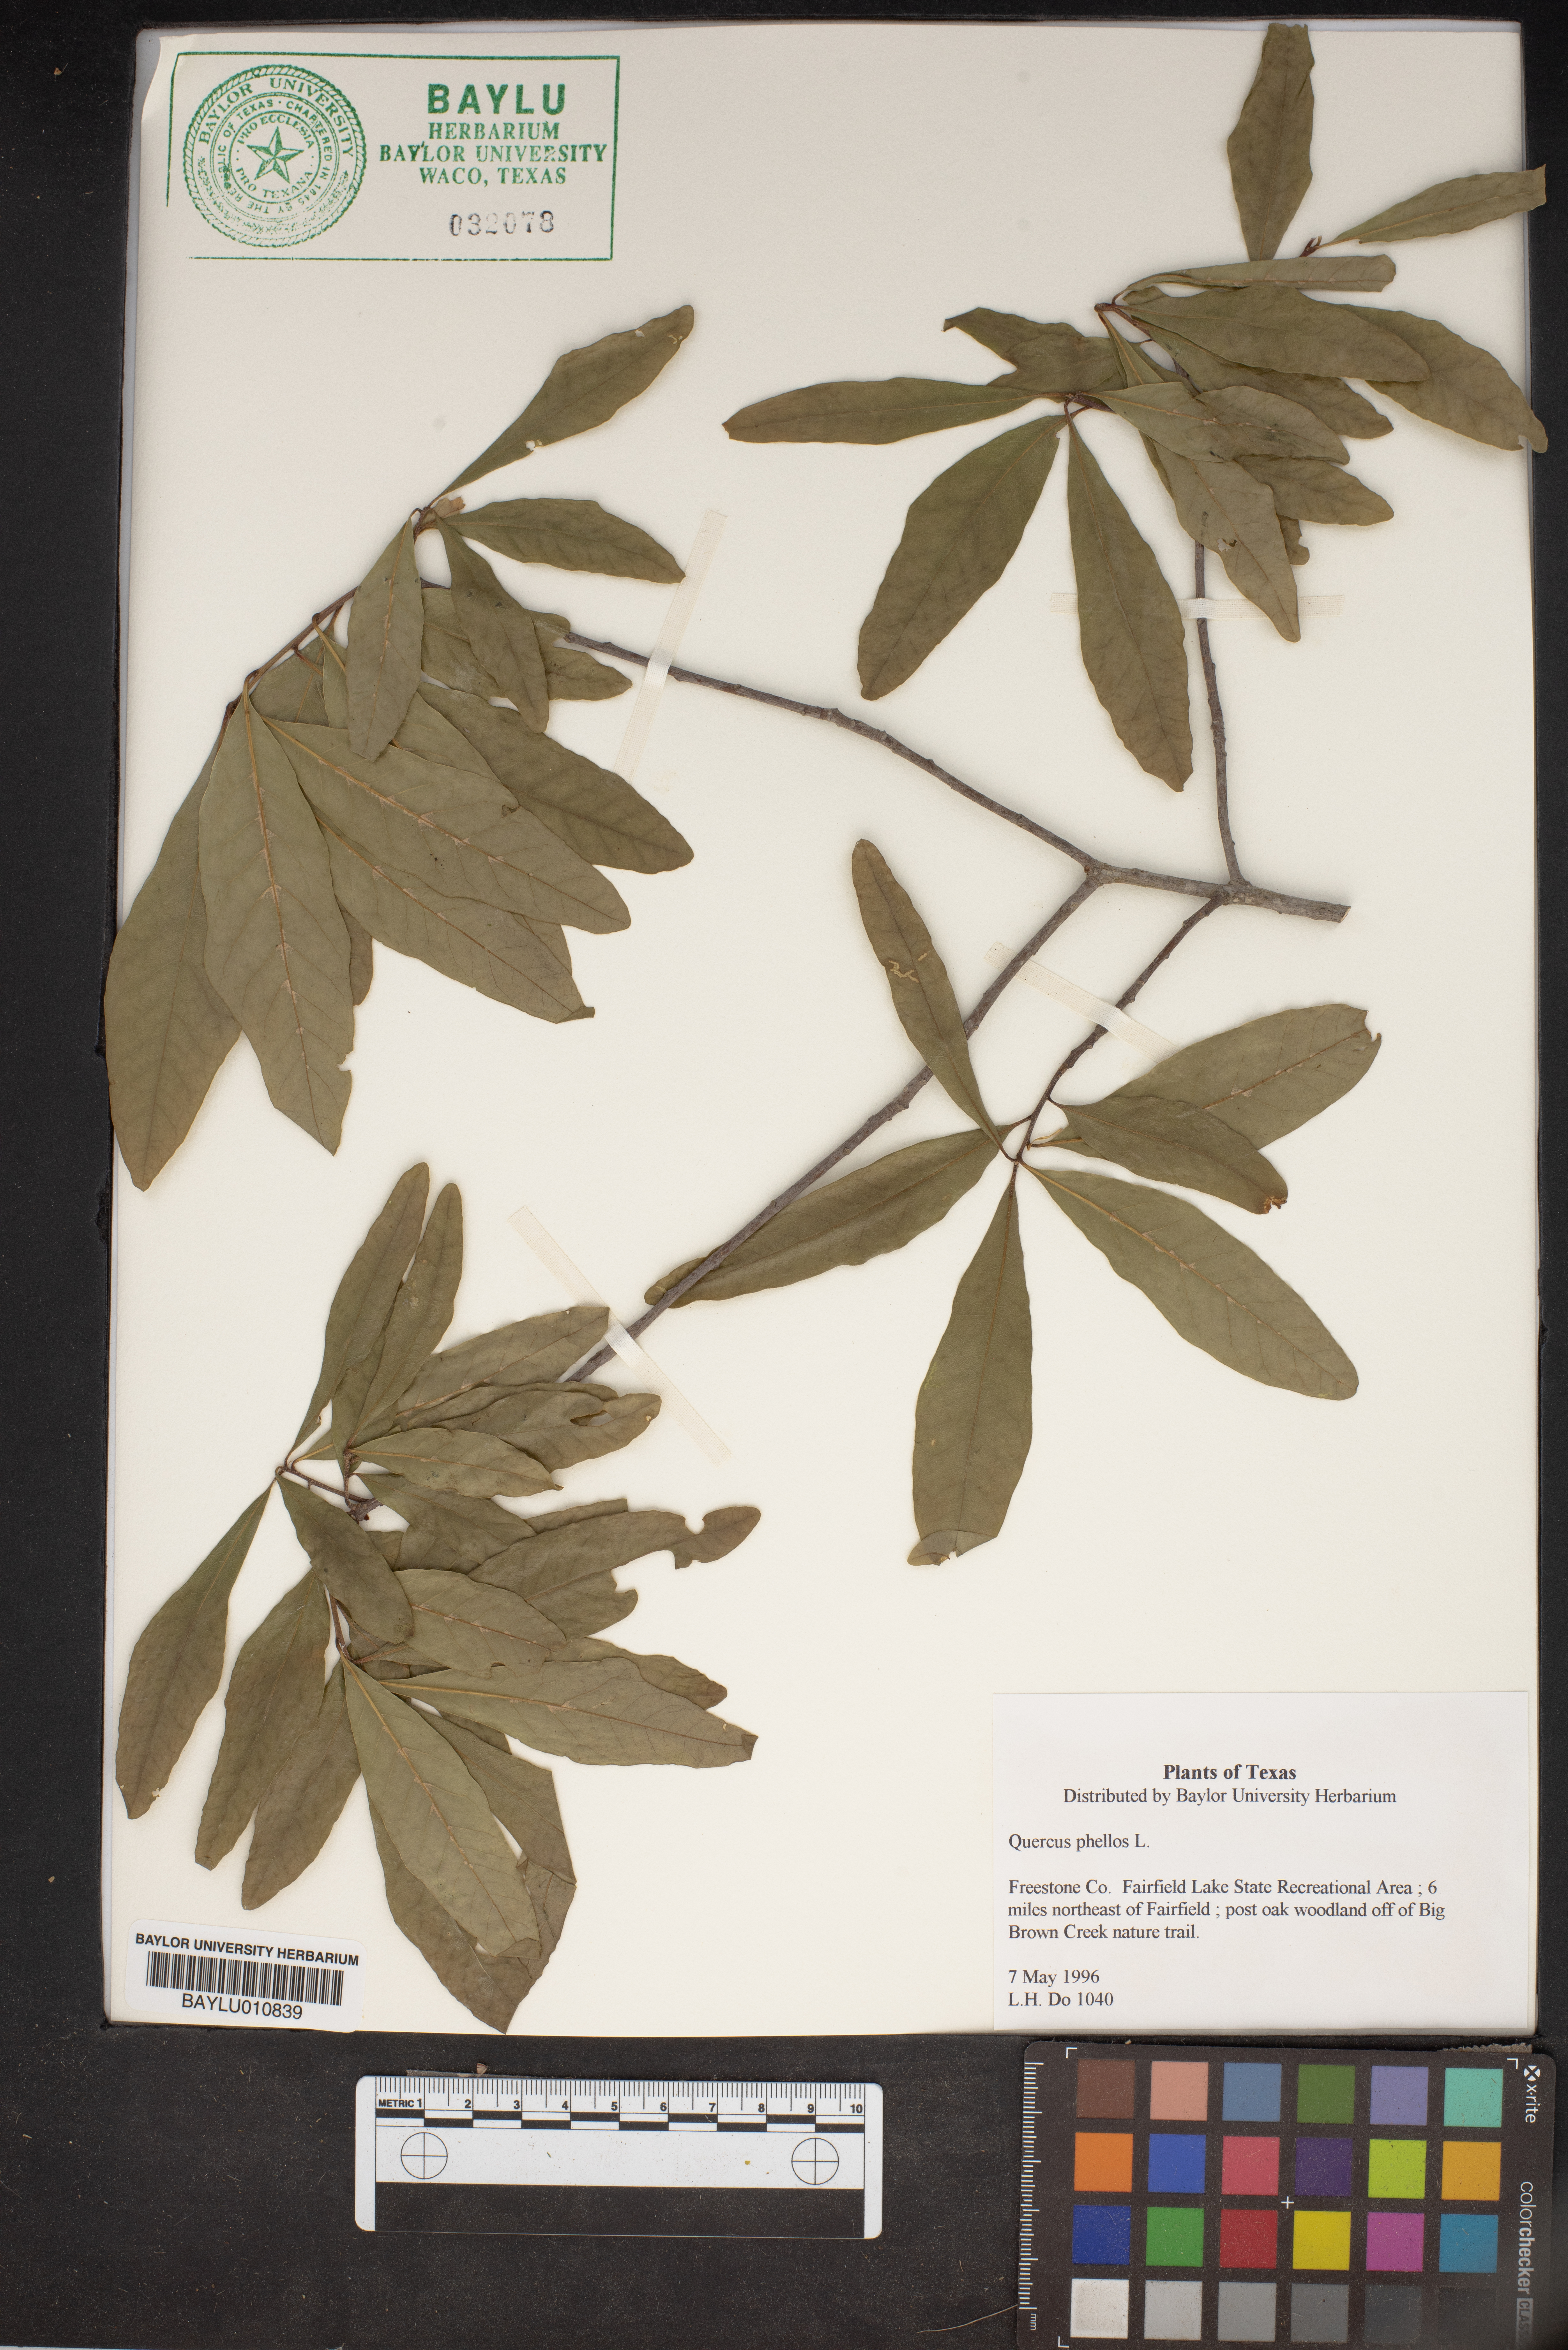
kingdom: Plantae
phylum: Tracheophyta
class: Magnoliopsida
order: Fagales
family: Fagaceae
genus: Quercus
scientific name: Quercus phellos
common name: Willow oak
